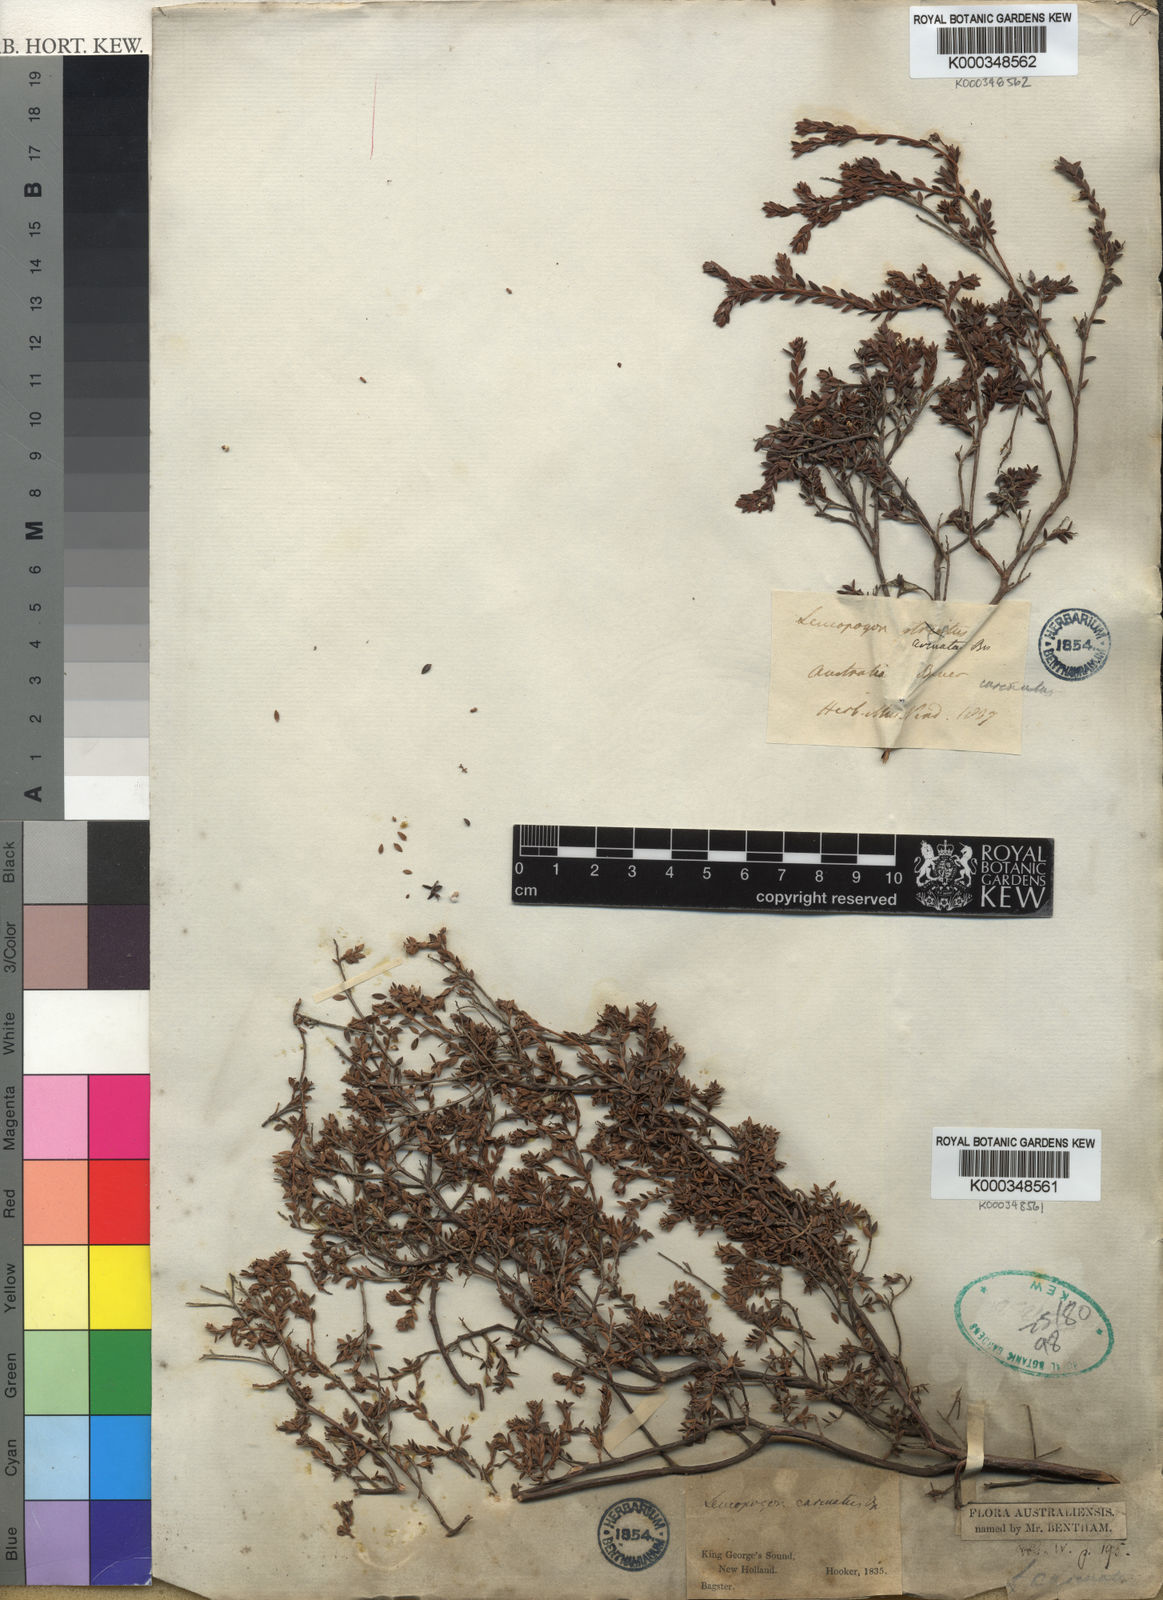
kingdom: Plantae
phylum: Tracheophyta
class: Magnoliopsida
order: Ericales
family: Ericaceae
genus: Leucopogon
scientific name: Leucopogon carinatus
